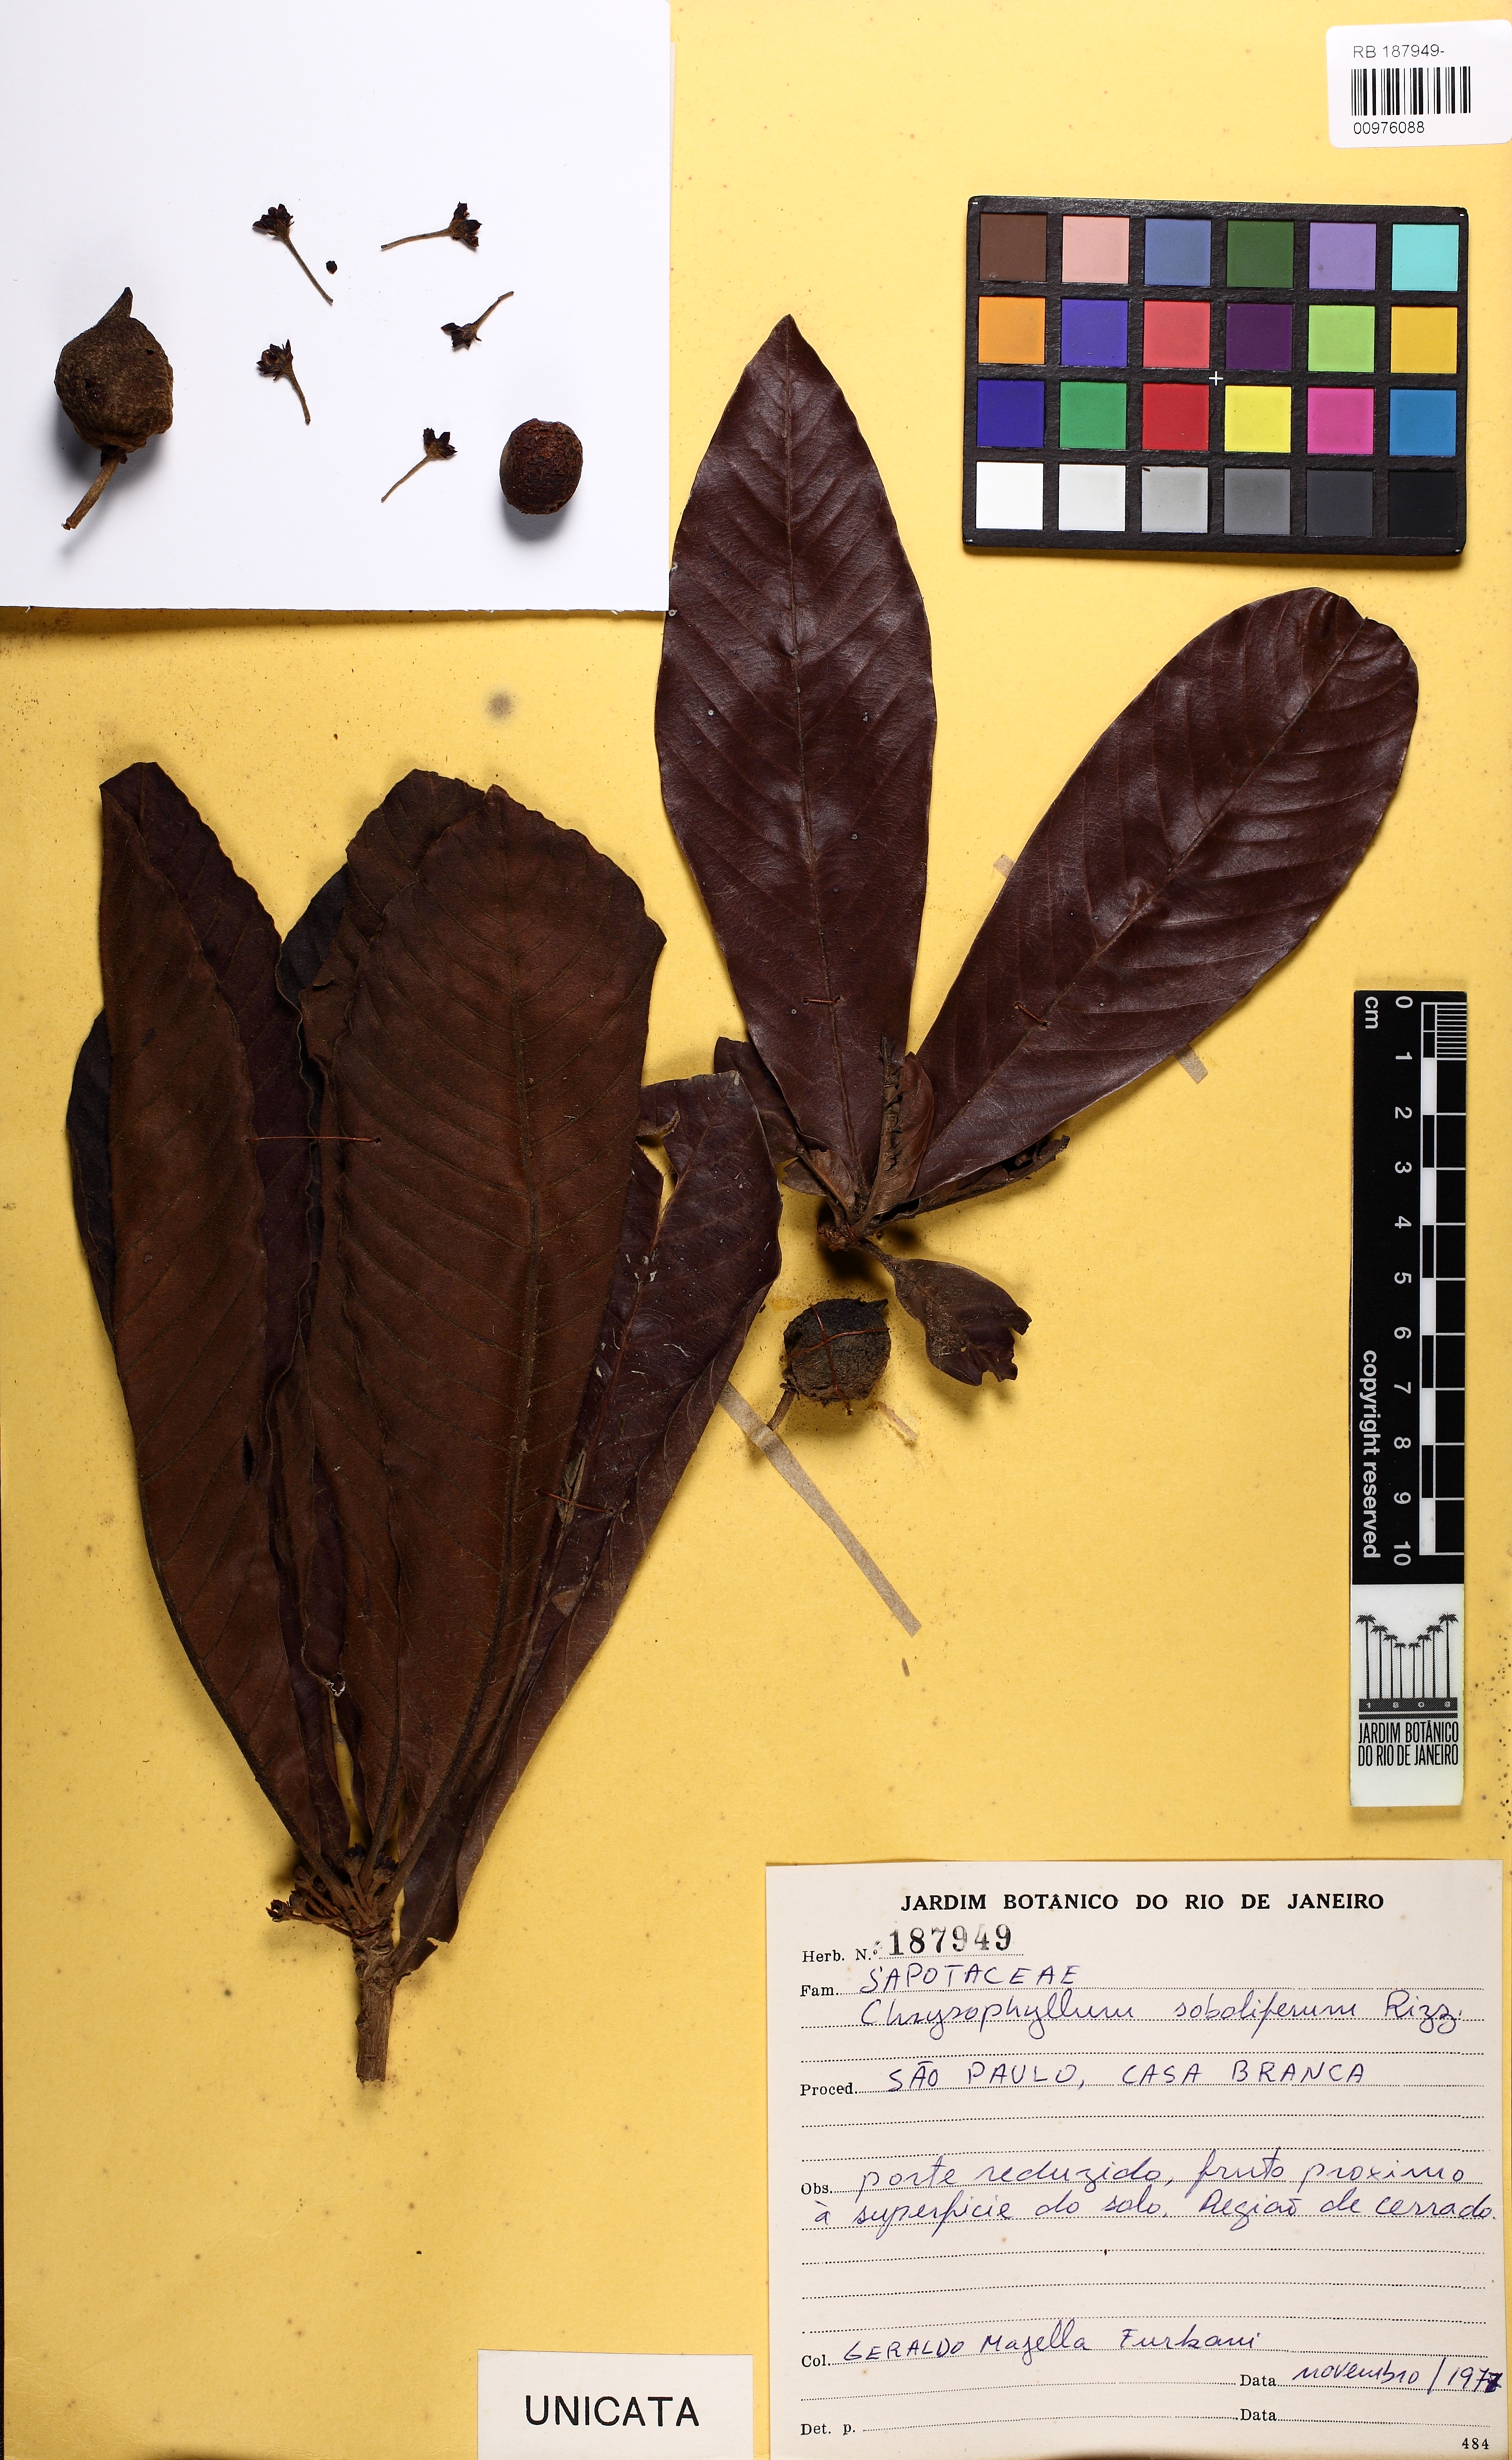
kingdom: Plantae
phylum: Tracheophyta
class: Magnoliopsida
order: Ericales
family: Sapotaceae
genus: Pradosia
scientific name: Pradosia brevipes
